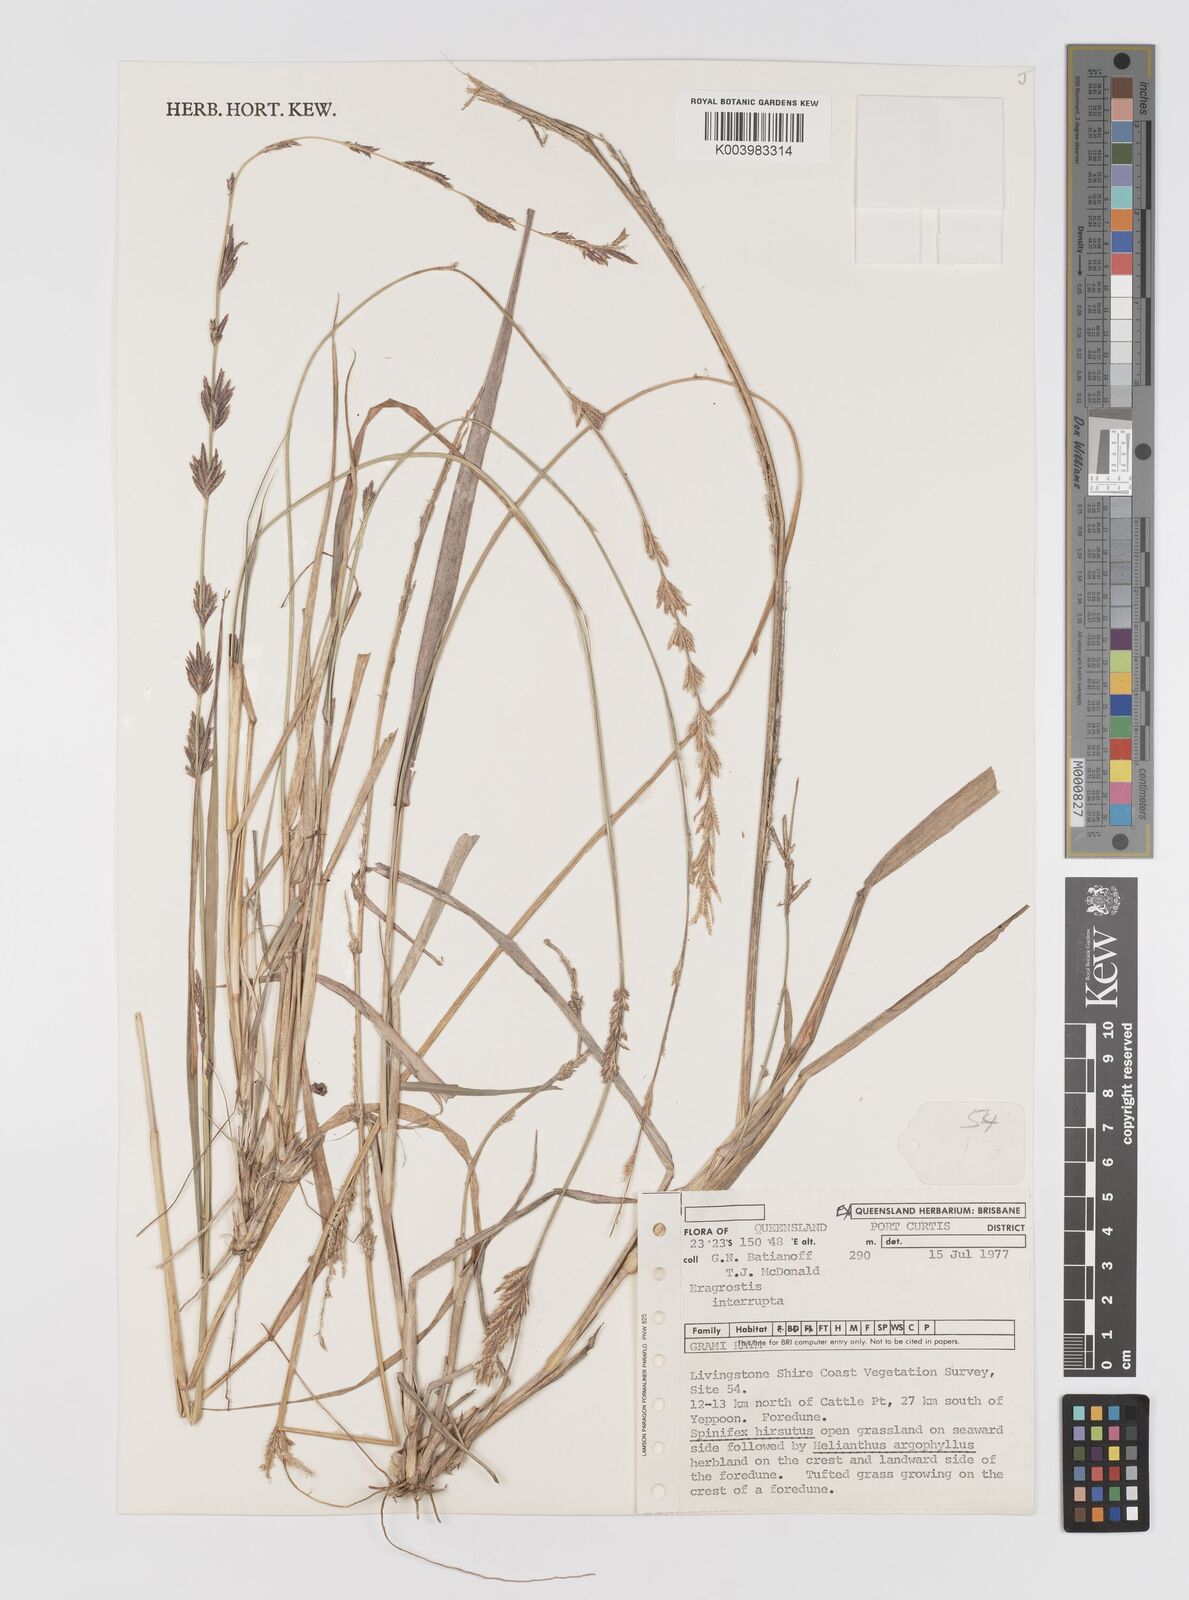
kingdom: Plantae
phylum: Tracheophyta
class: Liliopsida
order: Poales
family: Poaceae
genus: Eragrostis
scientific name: Eragrostis interrupta
